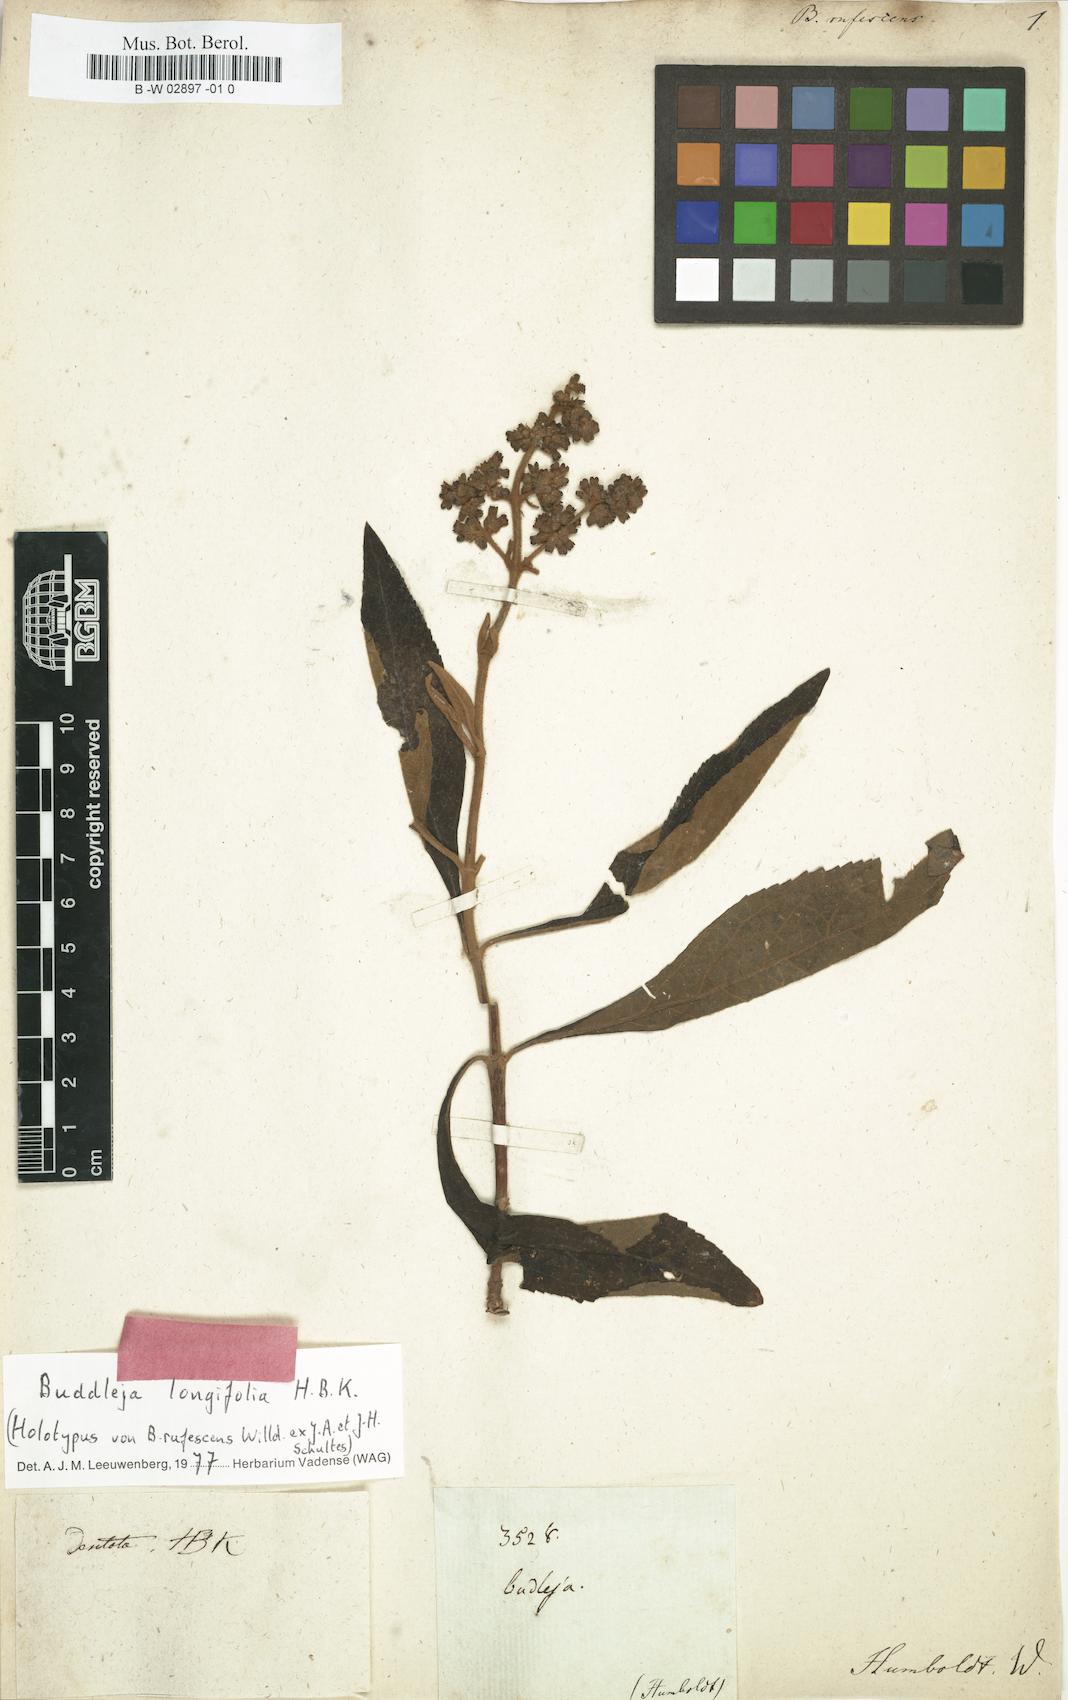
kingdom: Plantae
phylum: Tracheophyta
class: Magnoliopsida
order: Lamiales
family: Scrophulariaceae
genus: Buddleja
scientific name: Buddleja rufescens
